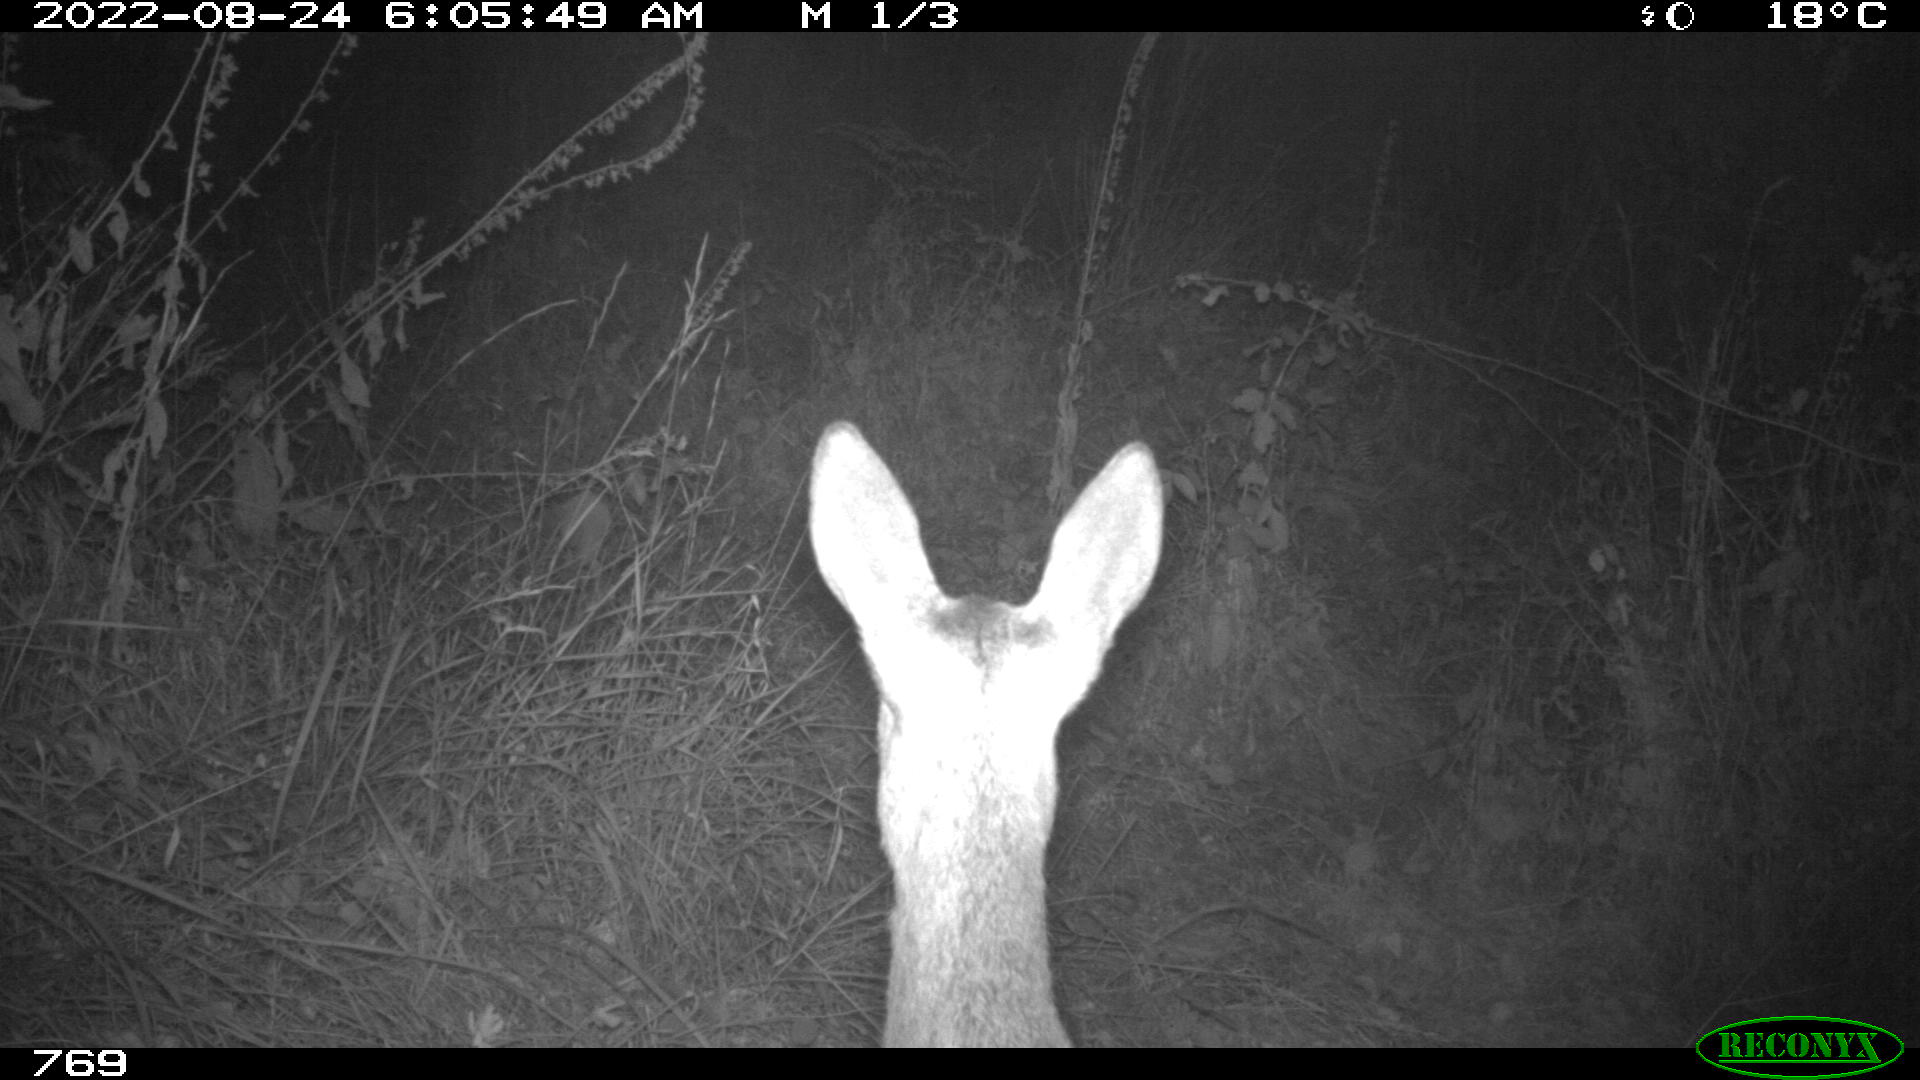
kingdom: Animalia
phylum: Chordata
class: Mammalia
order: Artiodactyla
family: Cervidae
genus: Capreolus
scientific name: Capreolus capreolus
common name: Western roe deer
